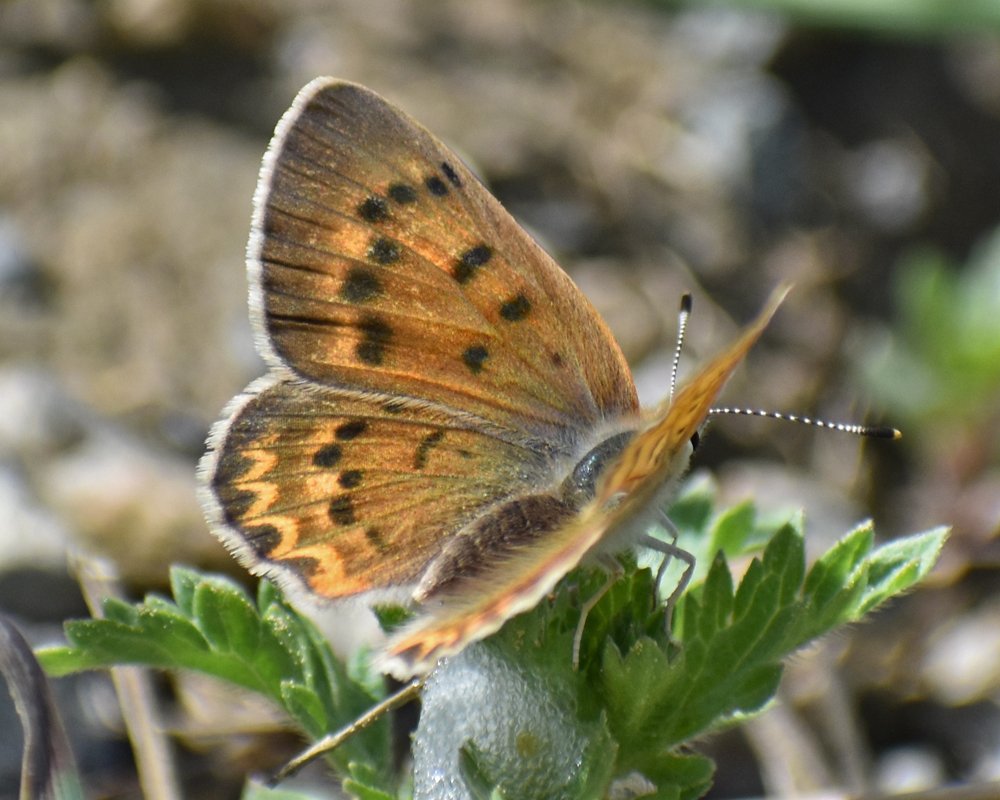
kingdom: Animalia
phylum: Arthropoda
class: Insecta
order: Lepidoptera
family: Sesiidae
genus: Sesia
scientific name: Sesia Lycaena helloides
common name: Purplish Copper
